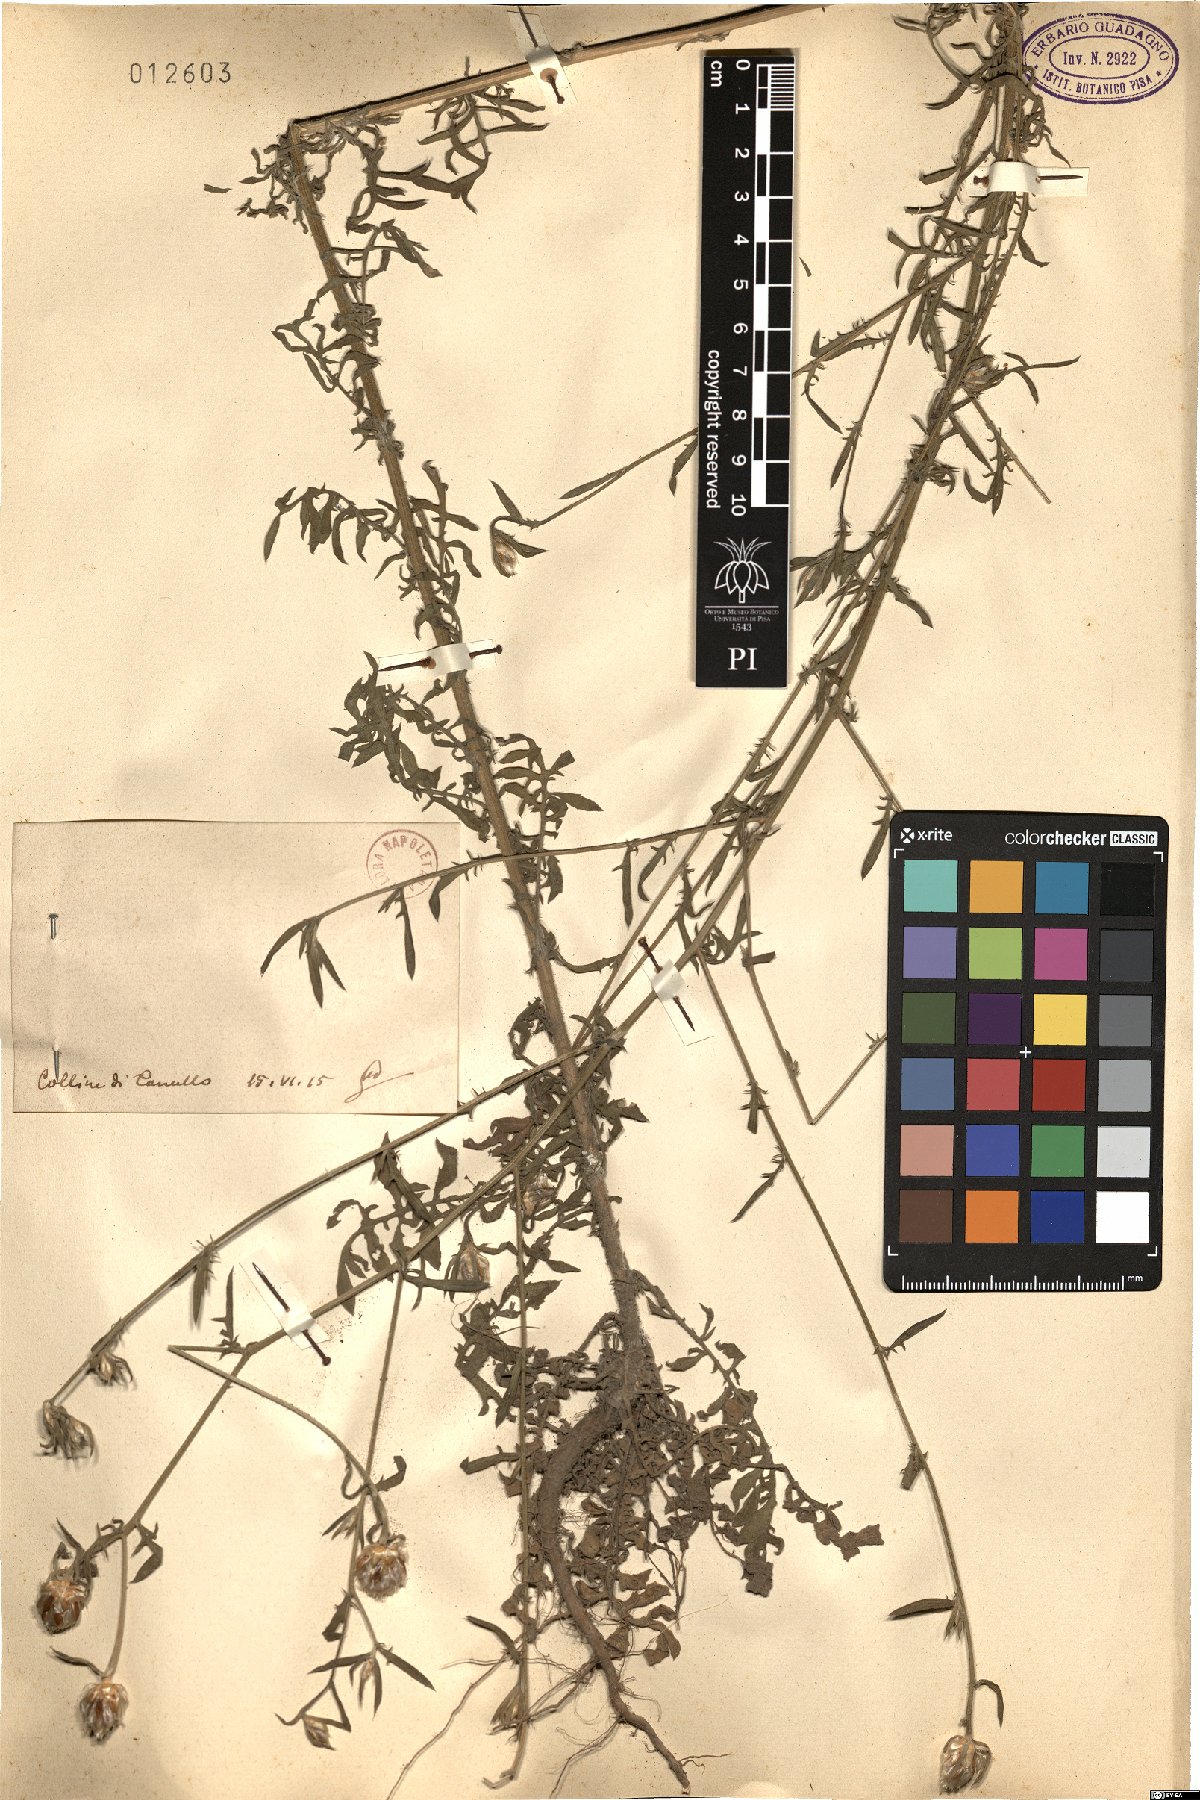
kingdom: Plantae
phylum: Tracheophyta
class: Magnoliopsida
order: Asterales
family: Asteraceae
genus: Centaurea
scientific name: Centaurea
